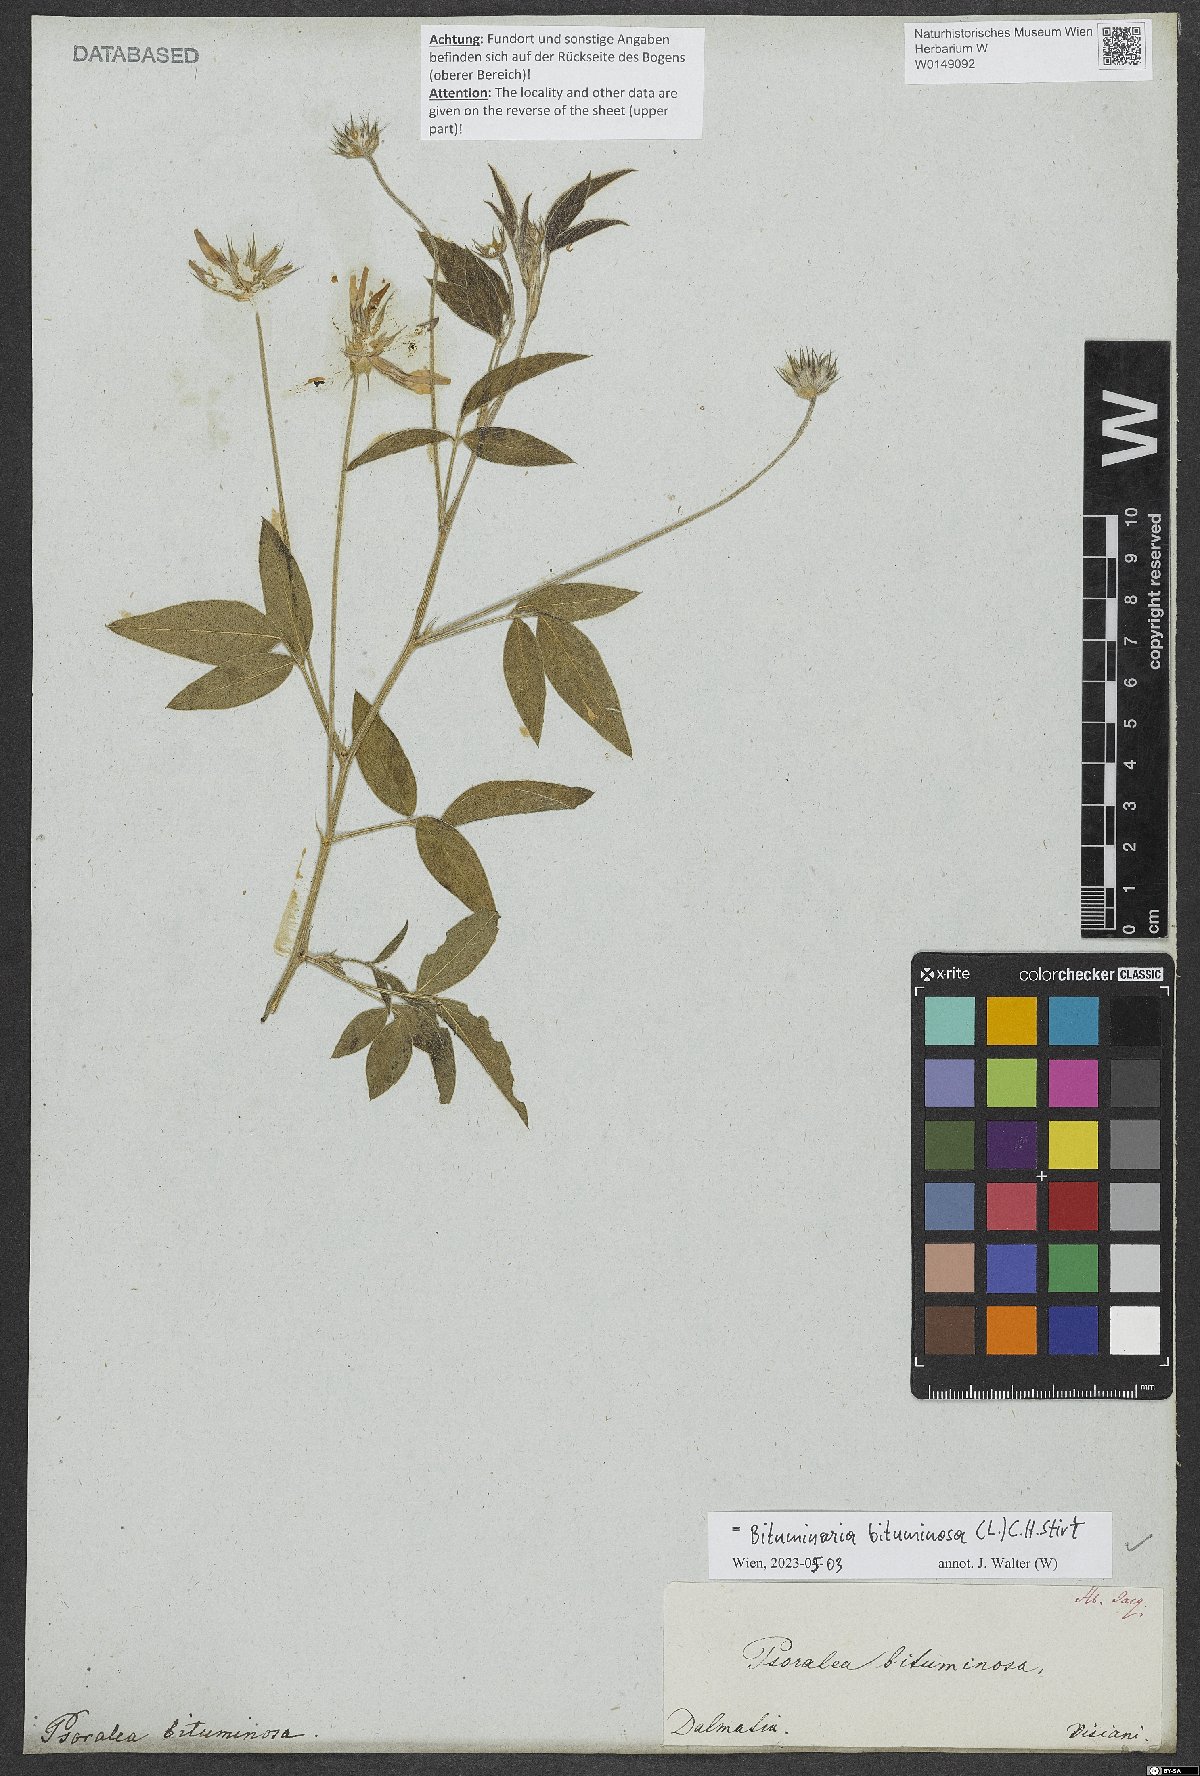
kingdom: Plantae
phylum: Tracheophyta
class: Magnoliopsida
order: Fabales
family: Fabaceae
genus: Bituminaria
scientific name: Bituminaria bituminosa
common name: Arabian pea
